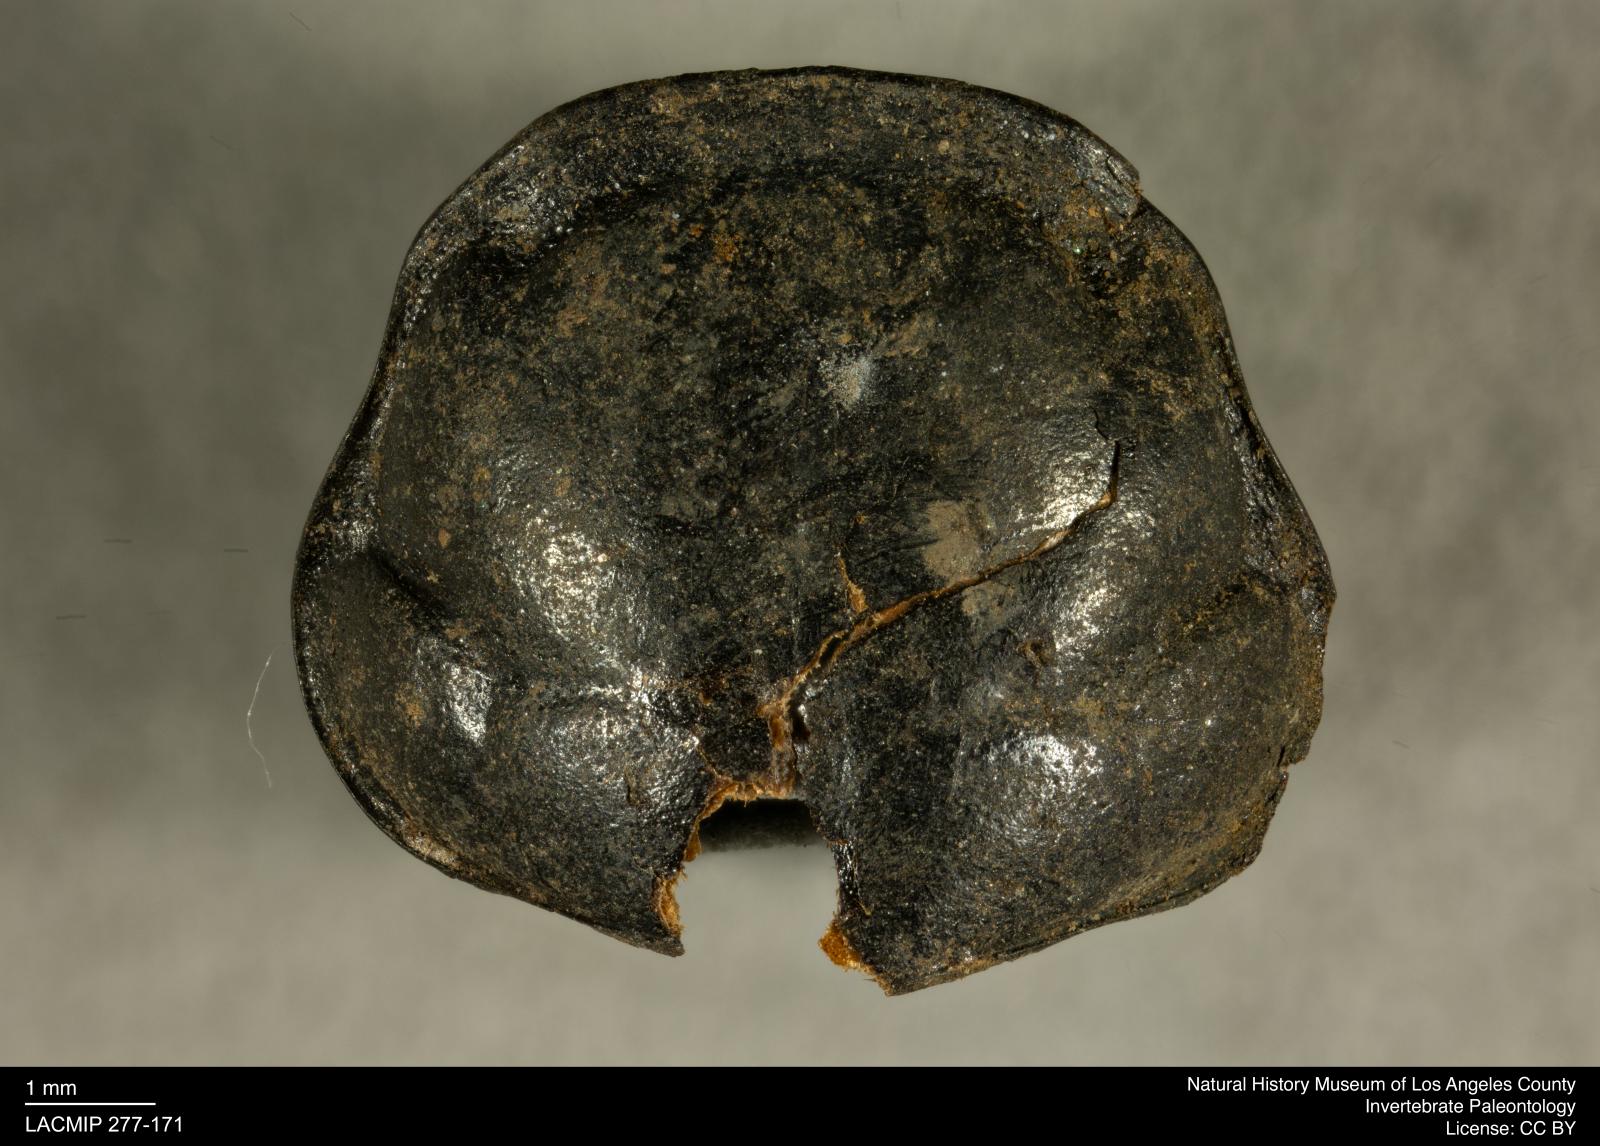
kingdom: Animalia
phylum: Arthropoda
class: Insecta
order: Coleoptera
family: Staphylinidae
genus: Nicrophorus
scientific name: Nicrophorus marginatus
